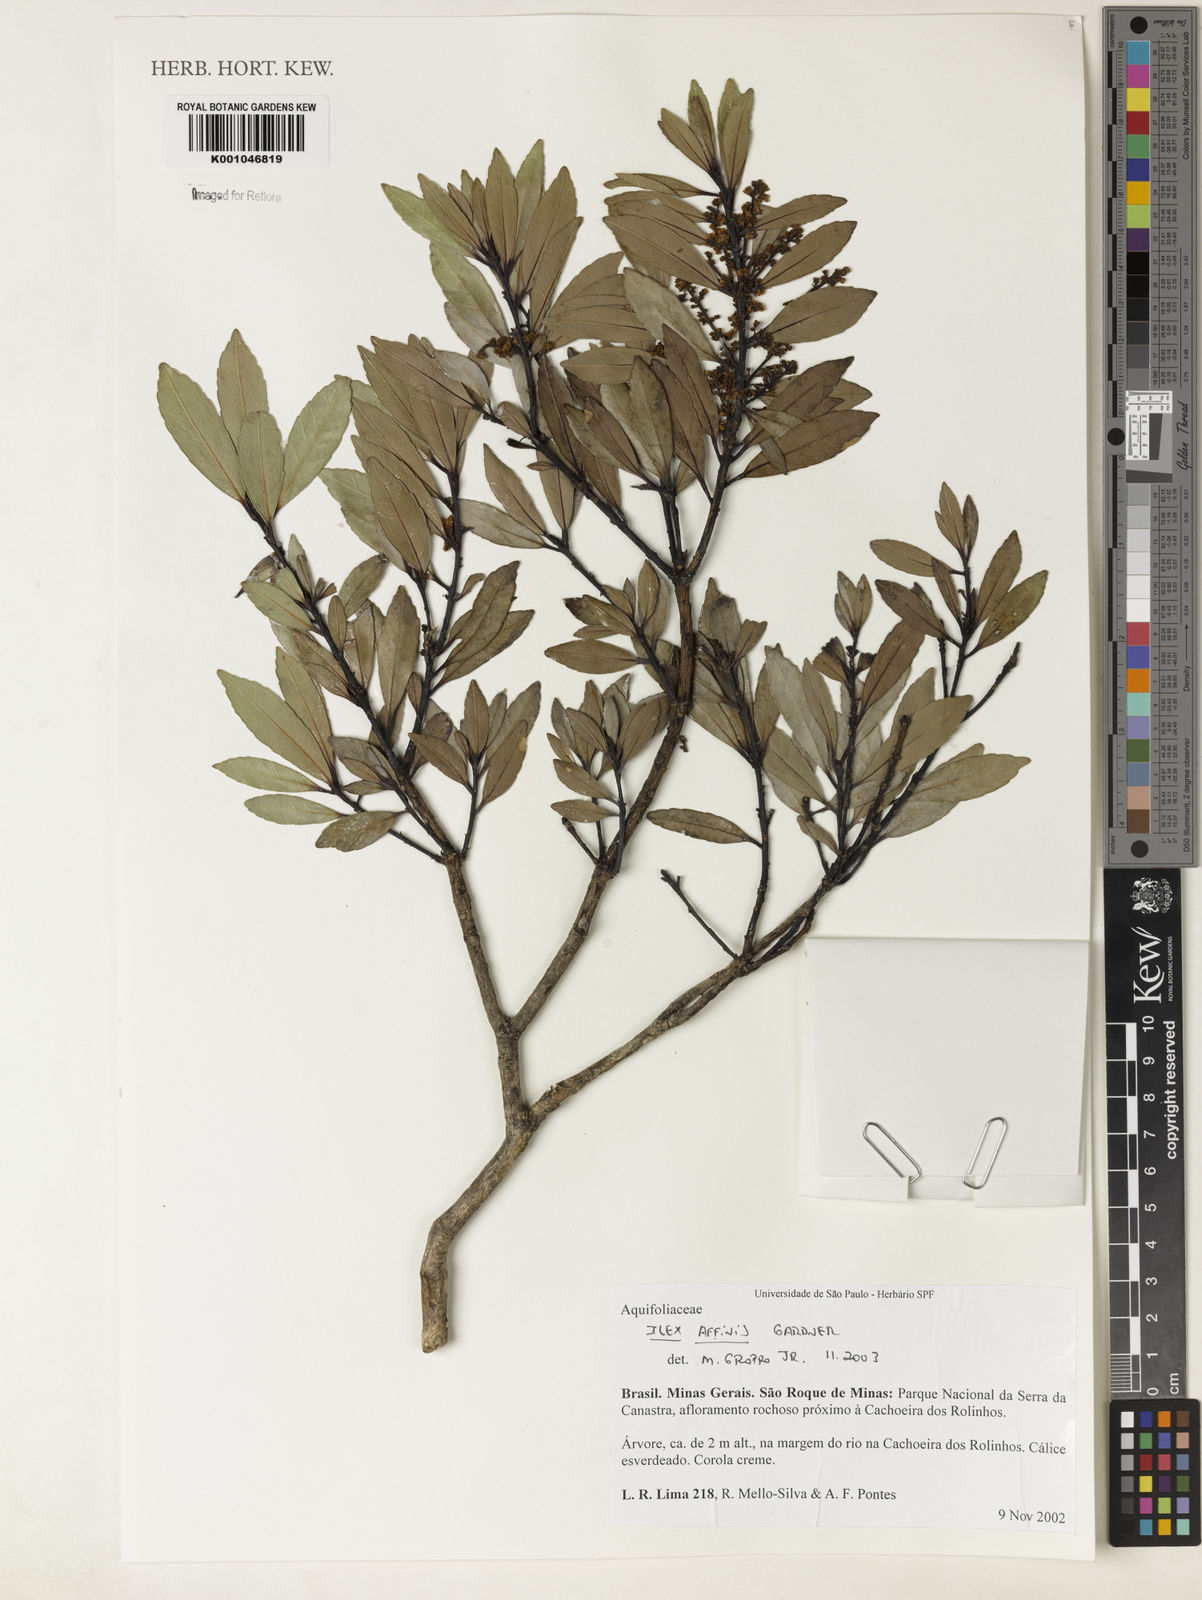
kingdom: Plantae
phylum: Tracheophyta
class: Magnoliopsida
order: Aquifoliales
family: Aquifoliaceae
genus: Ilex
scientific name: Ilex affinis
